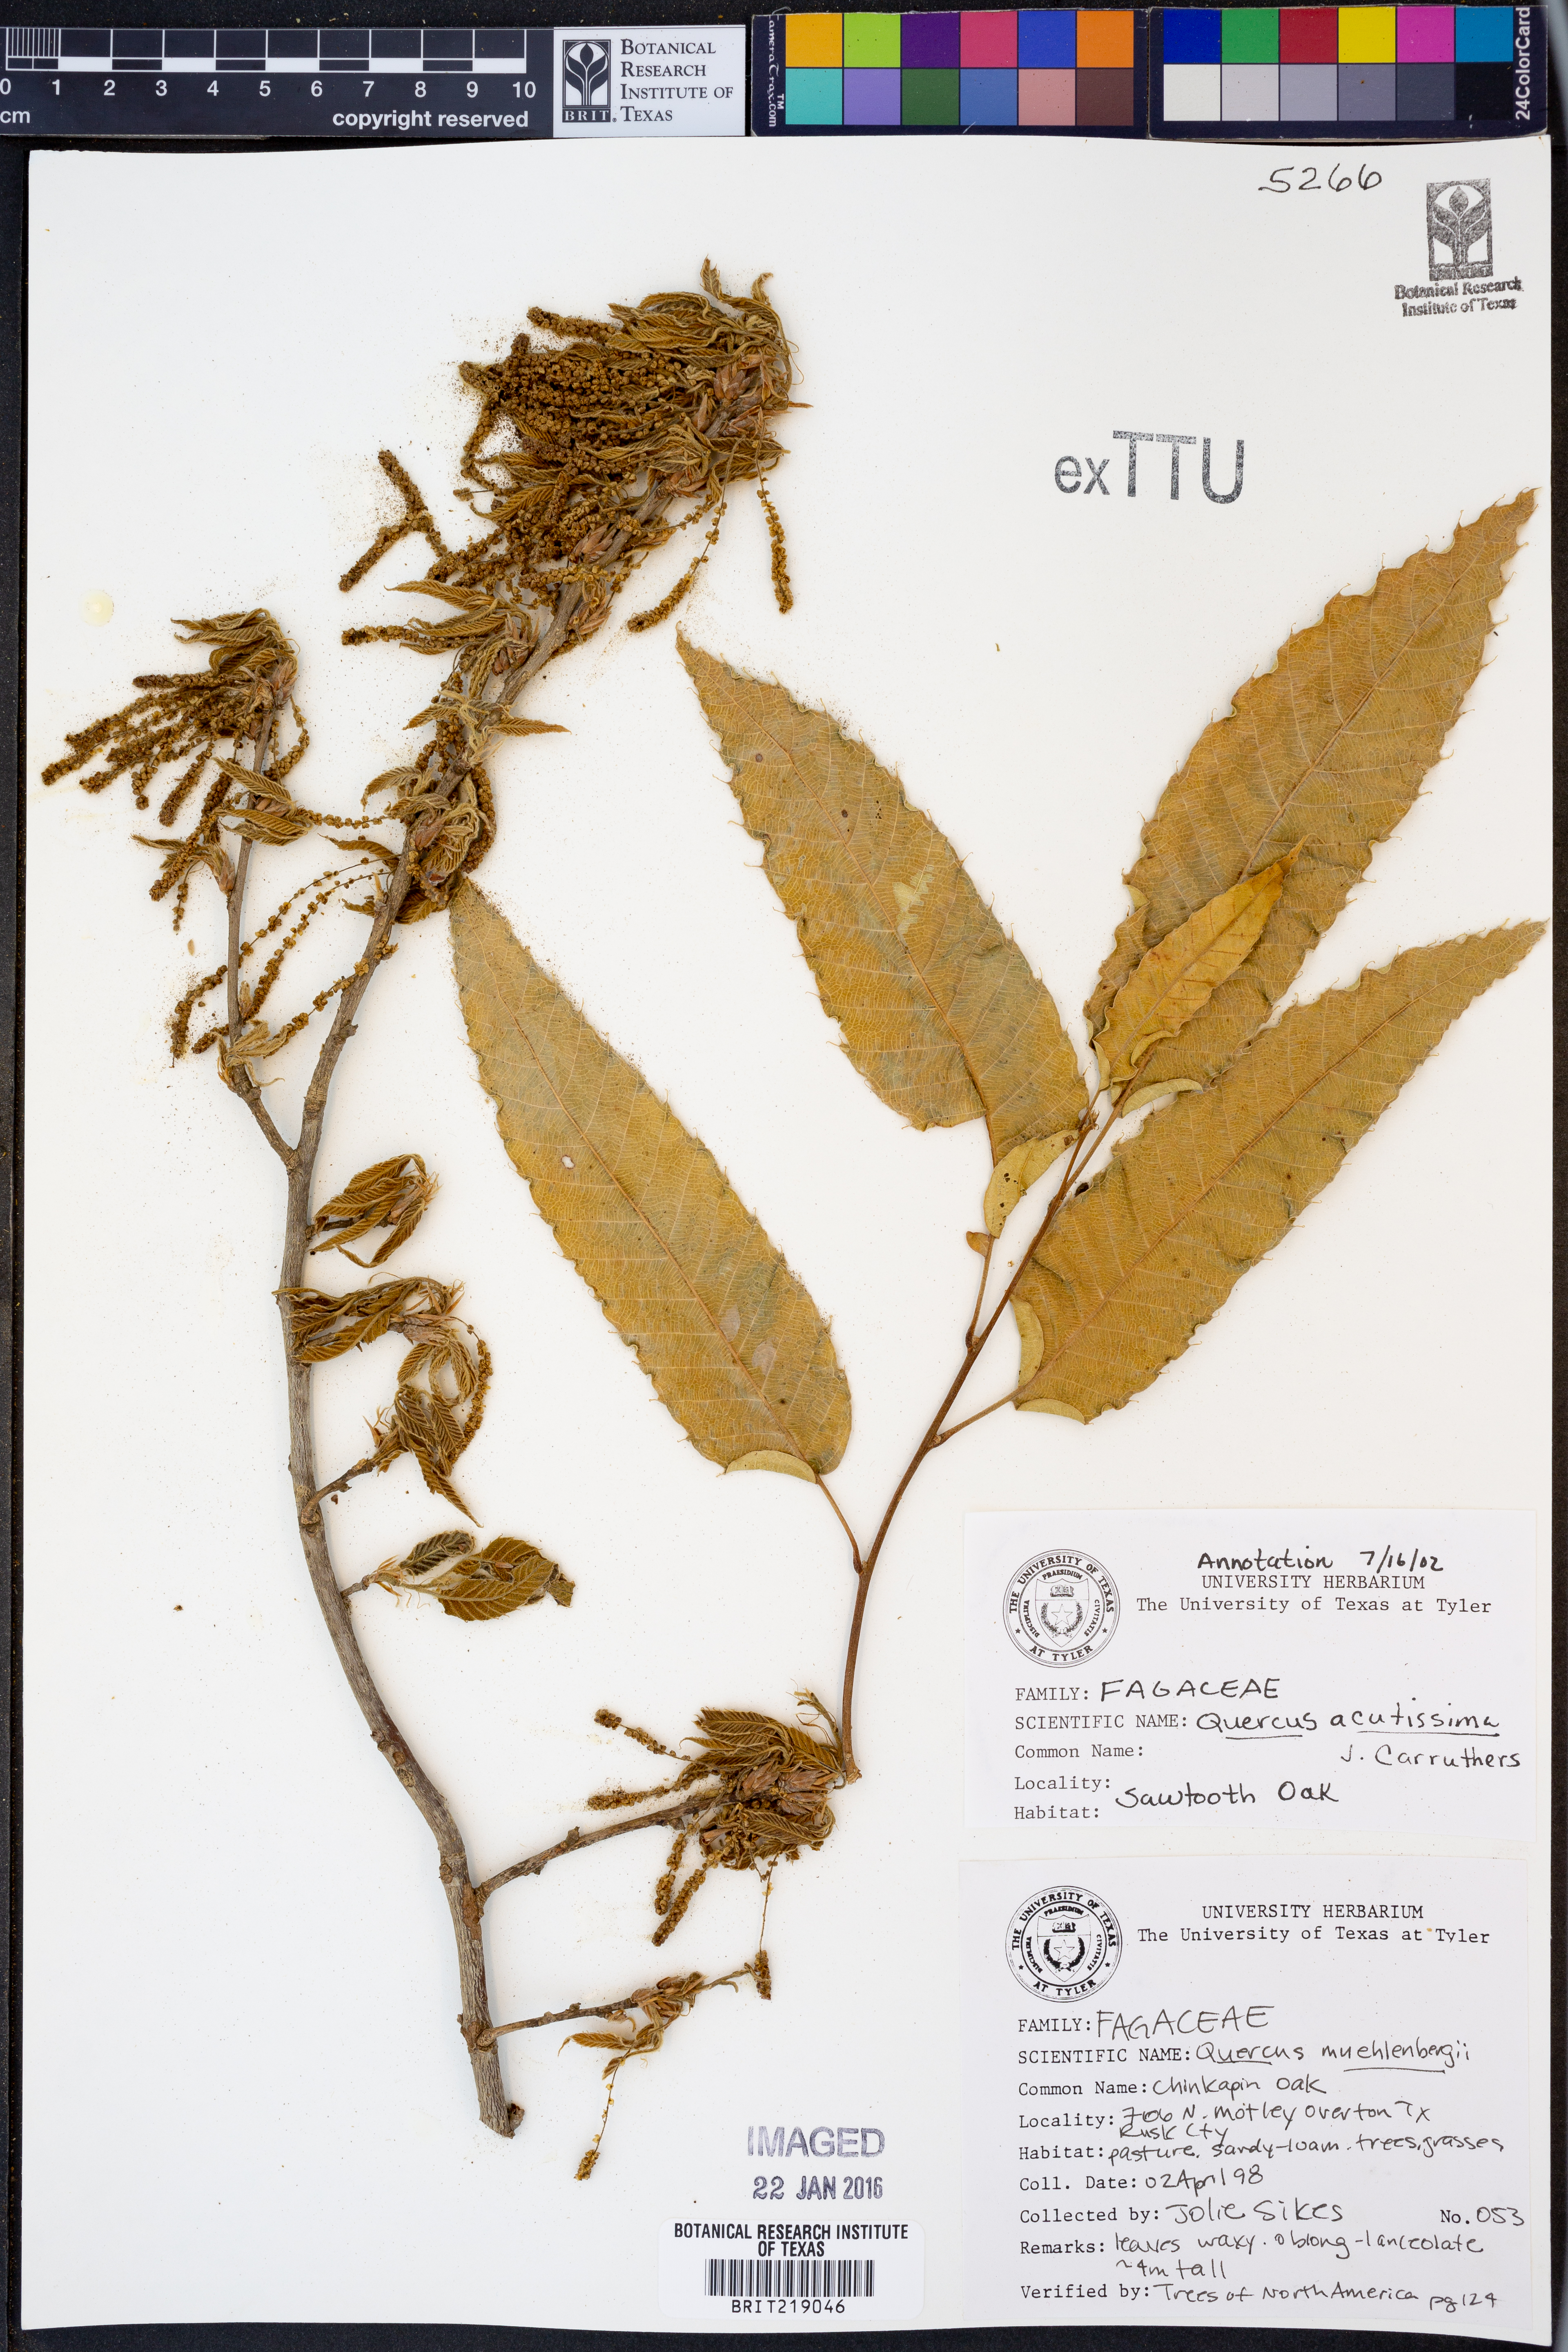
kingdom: Plantae
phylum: Tracheophyta
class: Magnoliopsida
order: Fagales
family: Fagaceae
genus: Quercus
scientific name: Quercus acutissima
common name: Sawtooth oak
